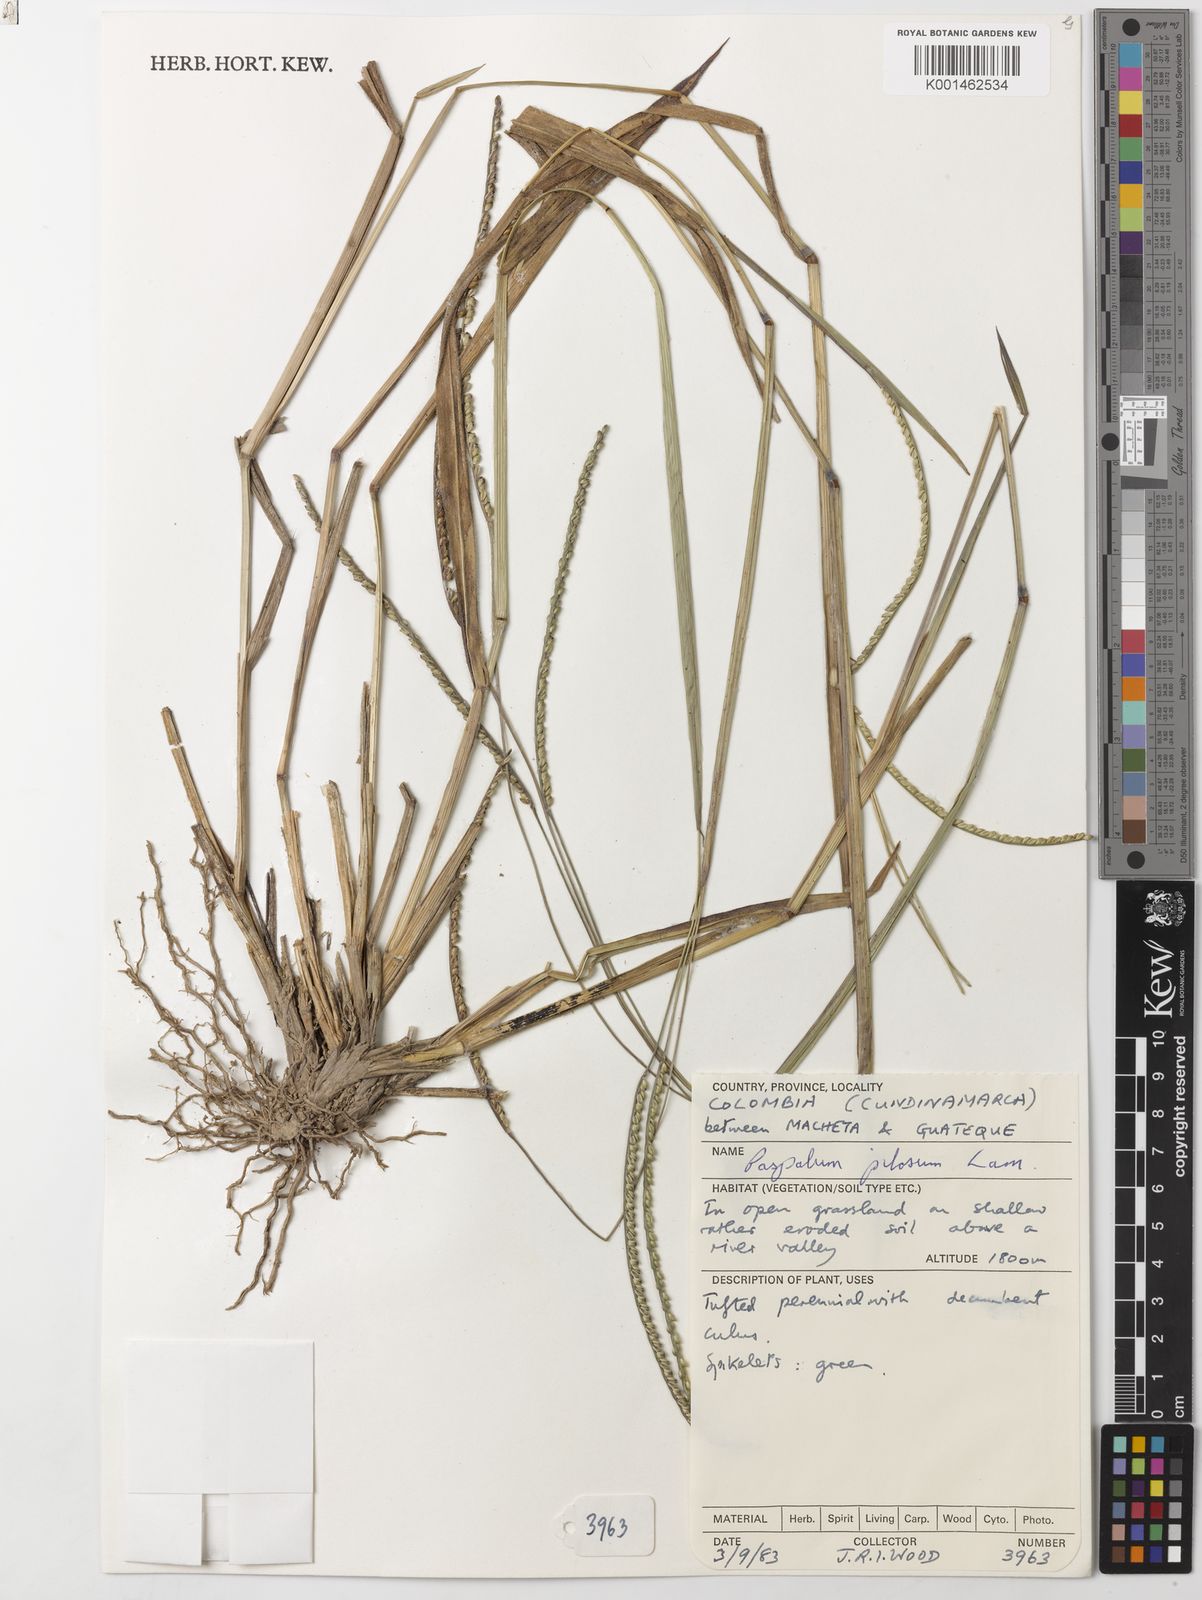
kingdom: Plantae
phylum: Tracheophyta
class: Liliopsida
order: Poales
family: Poaceae
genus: Paspalum
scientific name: Paspalum pilosum
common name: Crowngrass
